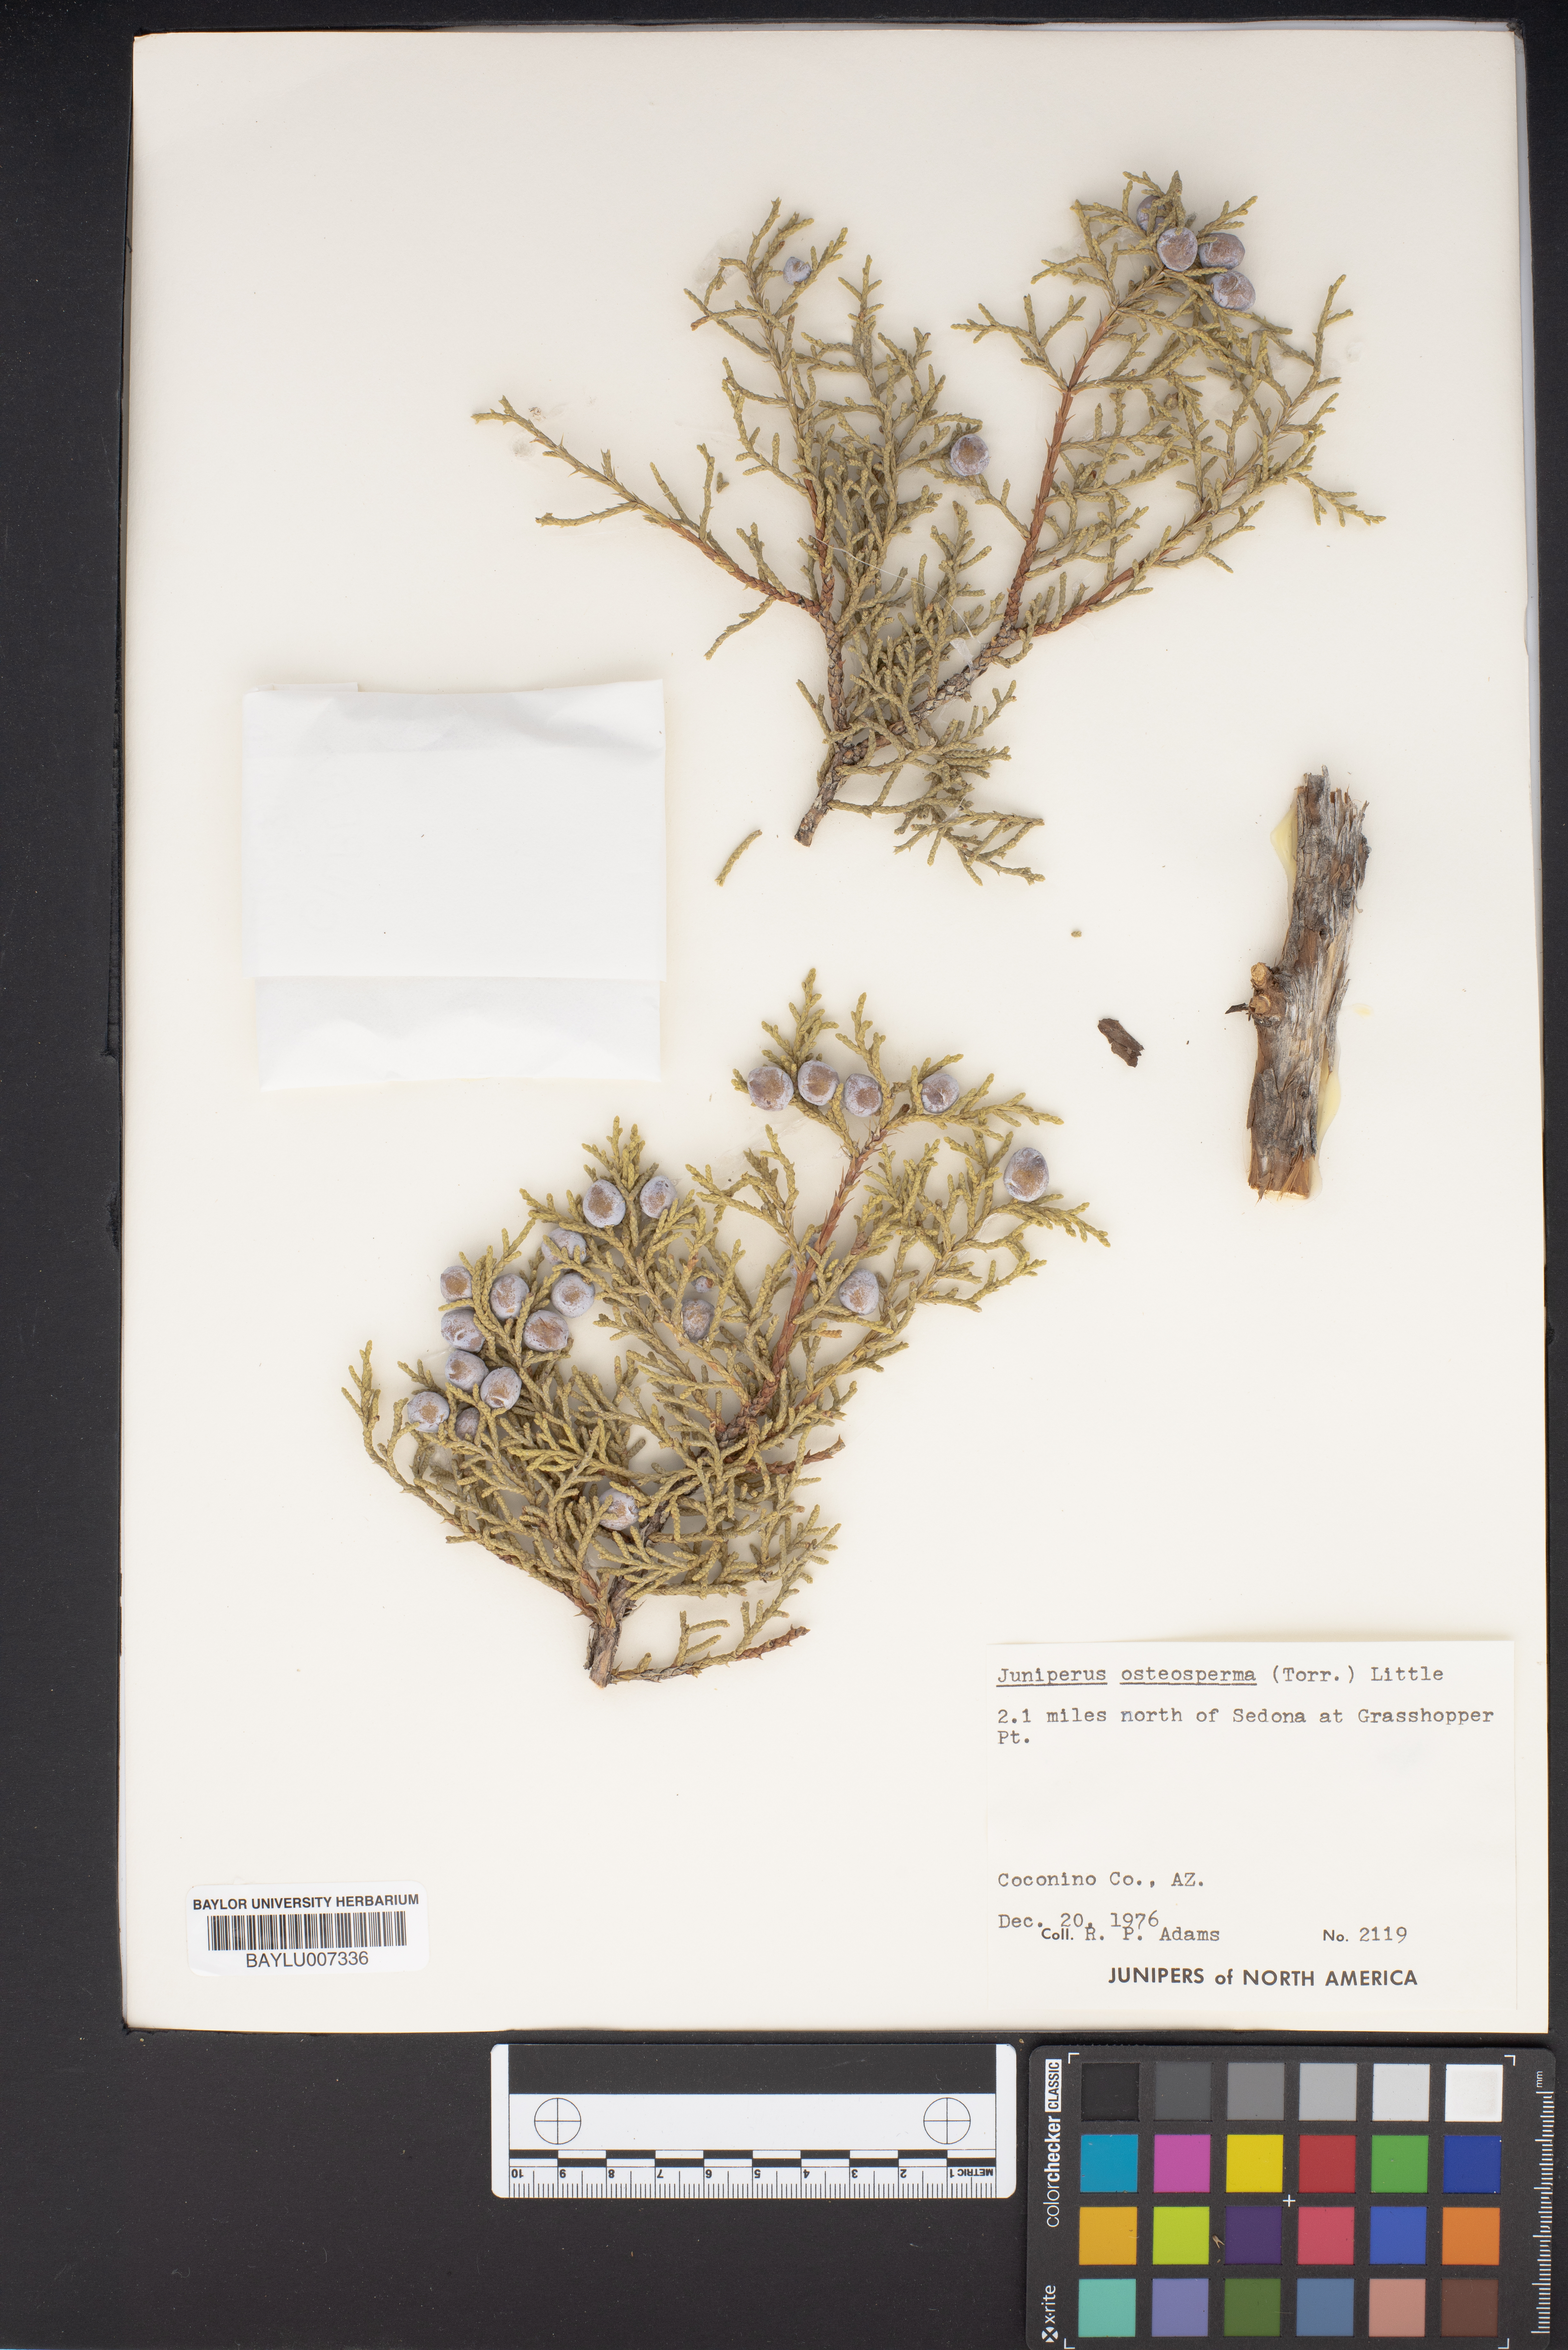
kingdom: Plantae
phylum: Tracheophyta
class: Pinopsida
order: Pinales
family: Cupressaceae
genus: Juniperus
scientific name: Juniperus osteosperma
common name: Utah juniper
